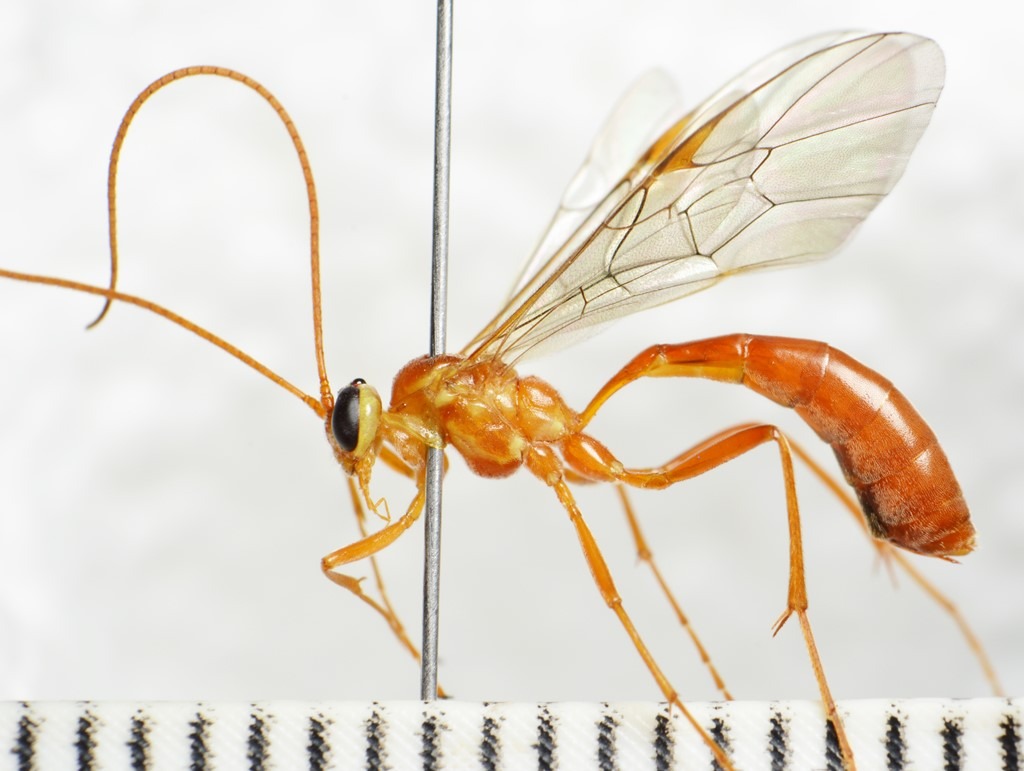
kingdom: Animalia
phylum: Arthropoda
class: Insecta
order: Hymenoptera
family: Ichneumonidae
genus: Ophion
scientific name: Ophion minutus
